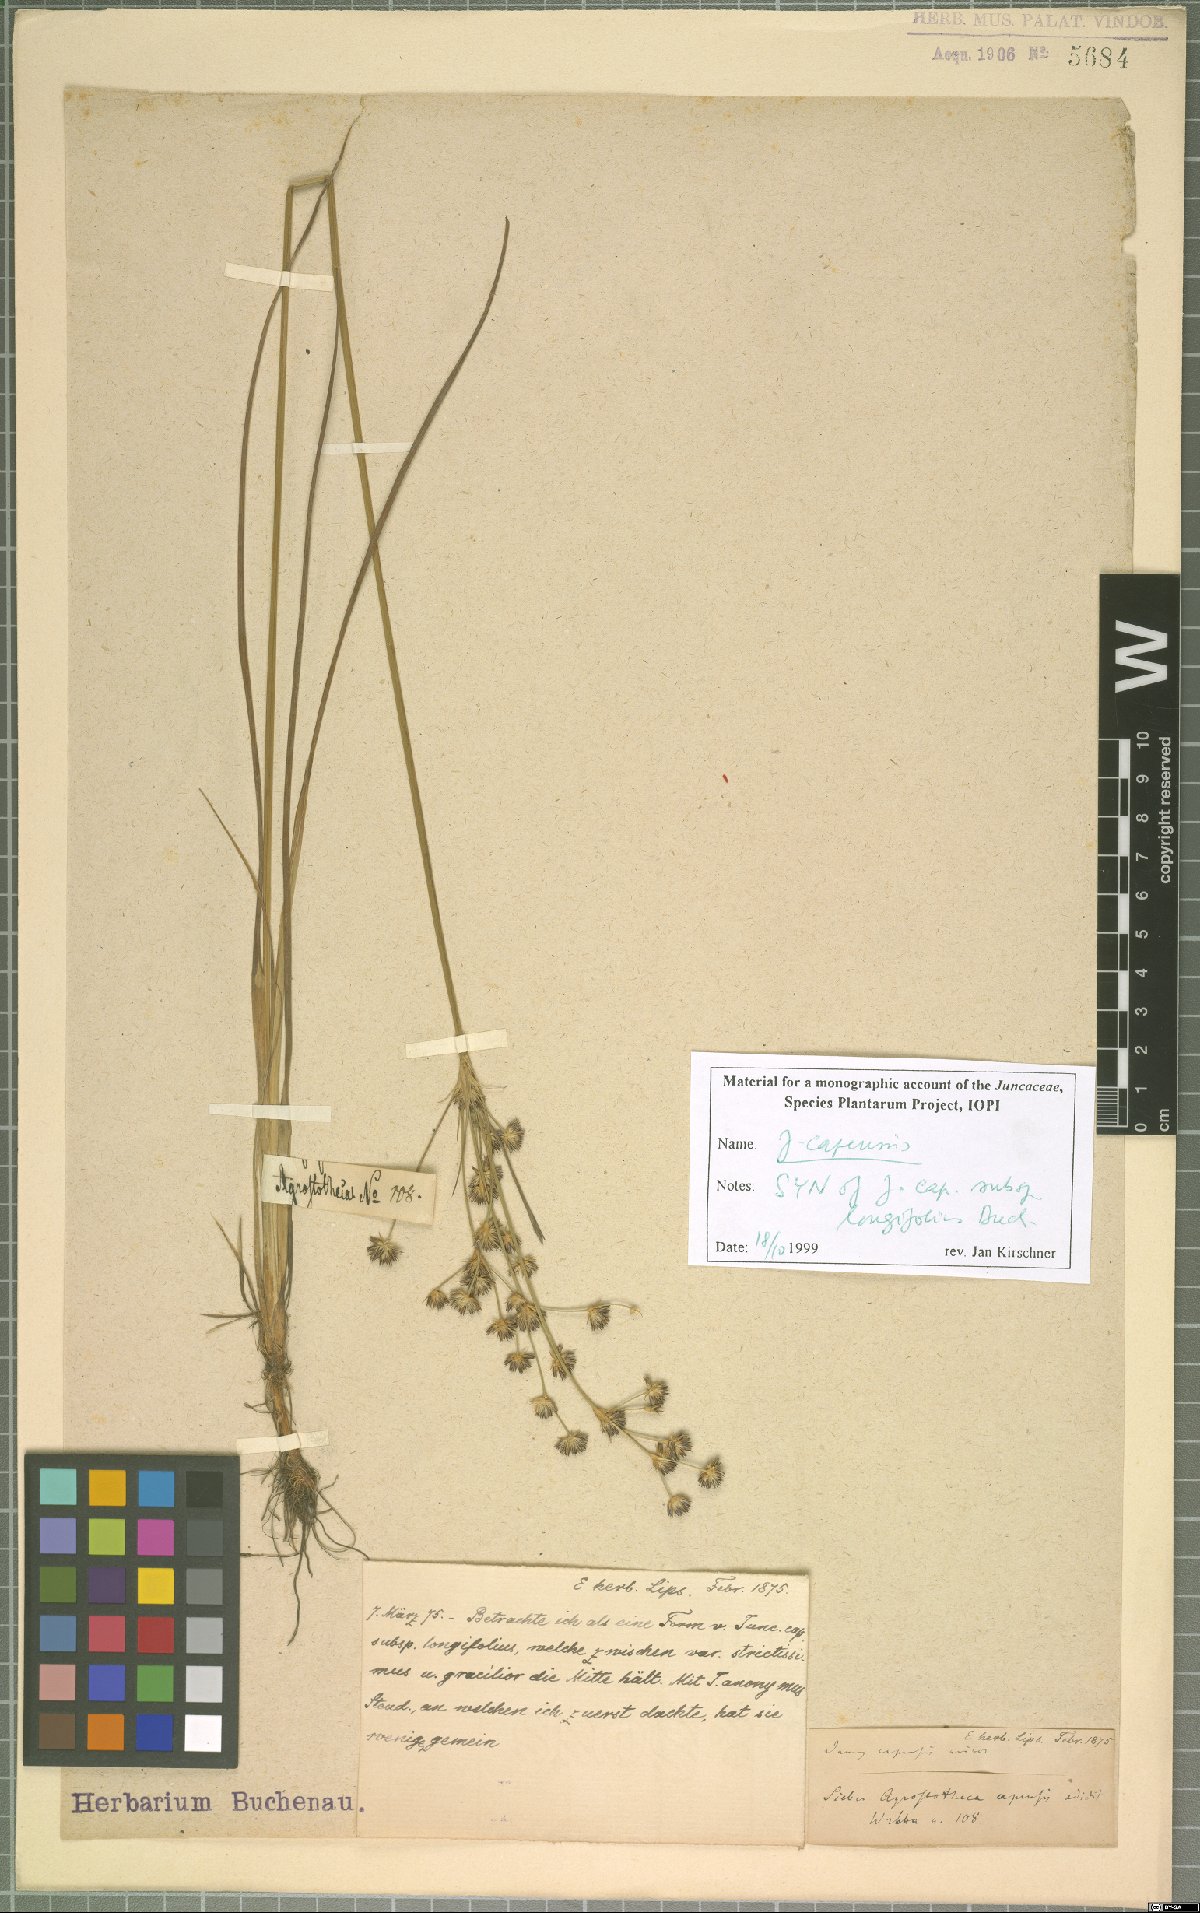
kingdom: Plantae
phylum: Tracheophyta
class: Liliopsida
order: Poales
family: Juncaceae
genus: Juncus
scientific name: Juncus capensis
